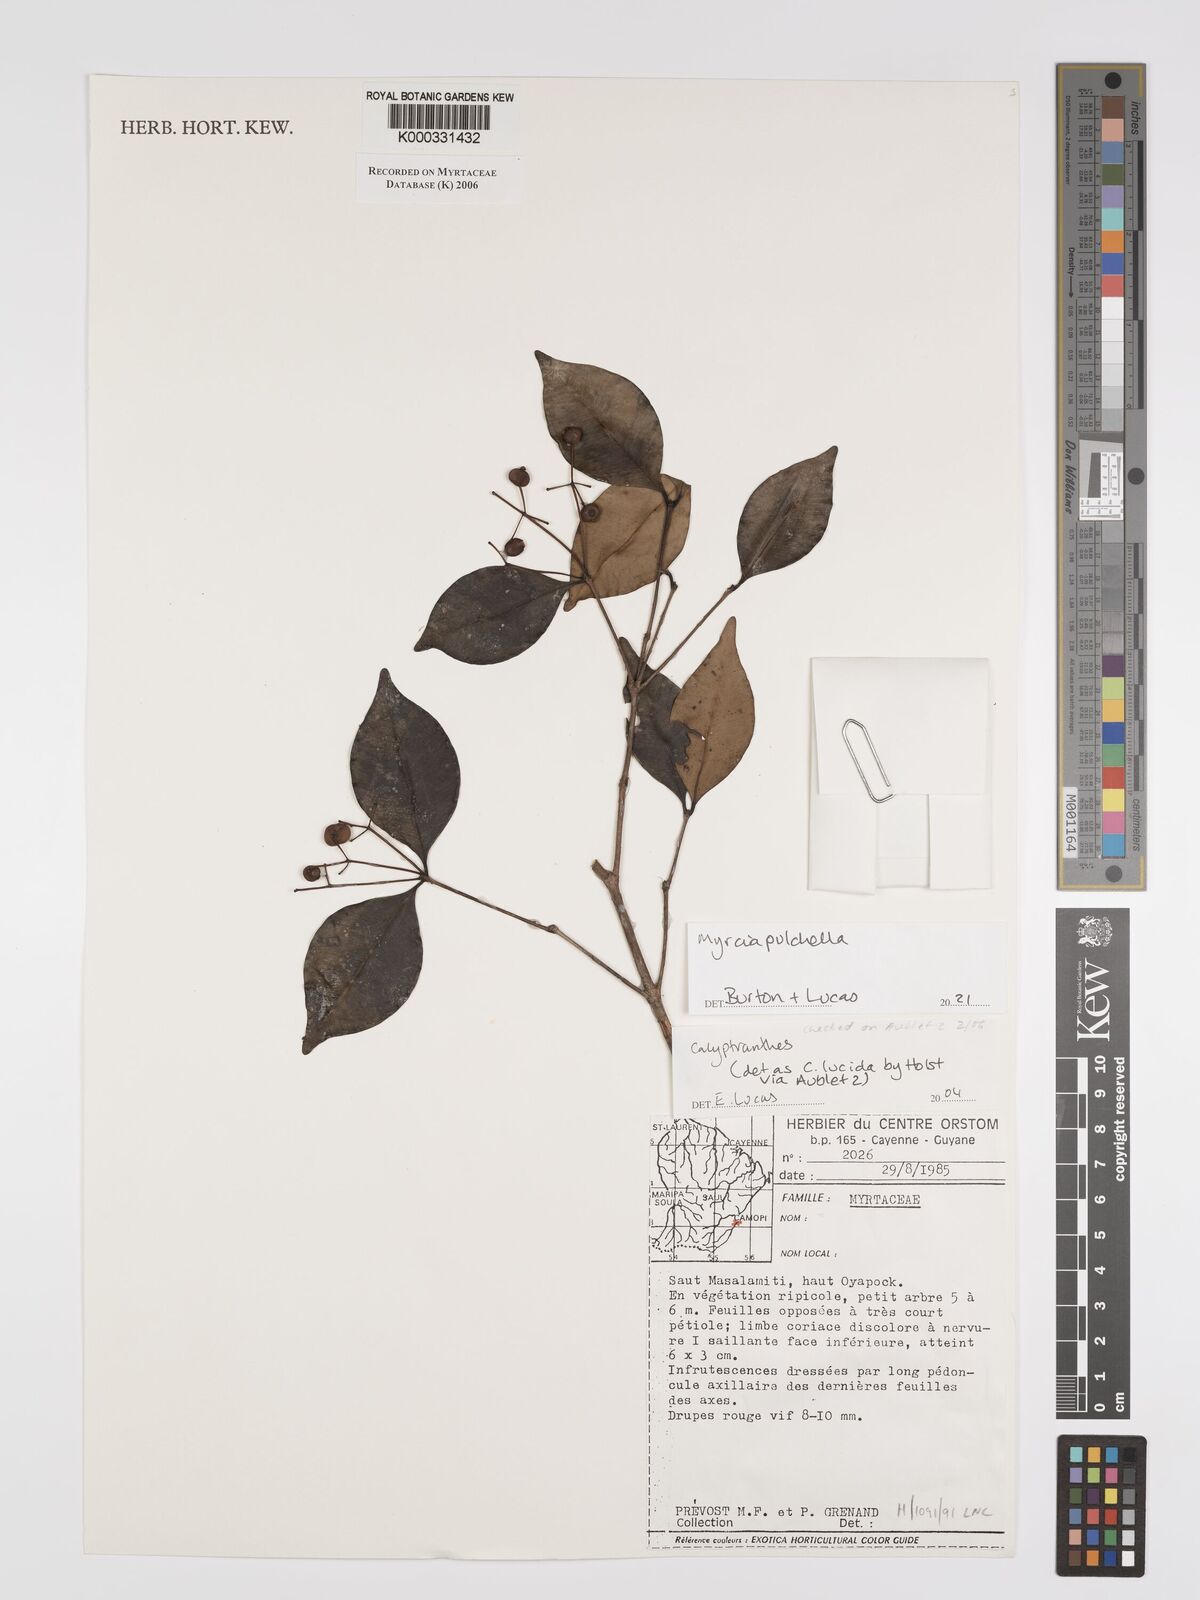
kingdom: Plantae
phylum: Tracheophyta
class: Magnoliopsida
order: Myrtales
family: Myrtaceae
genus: Calyptranthes
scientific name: Calyptranthes
